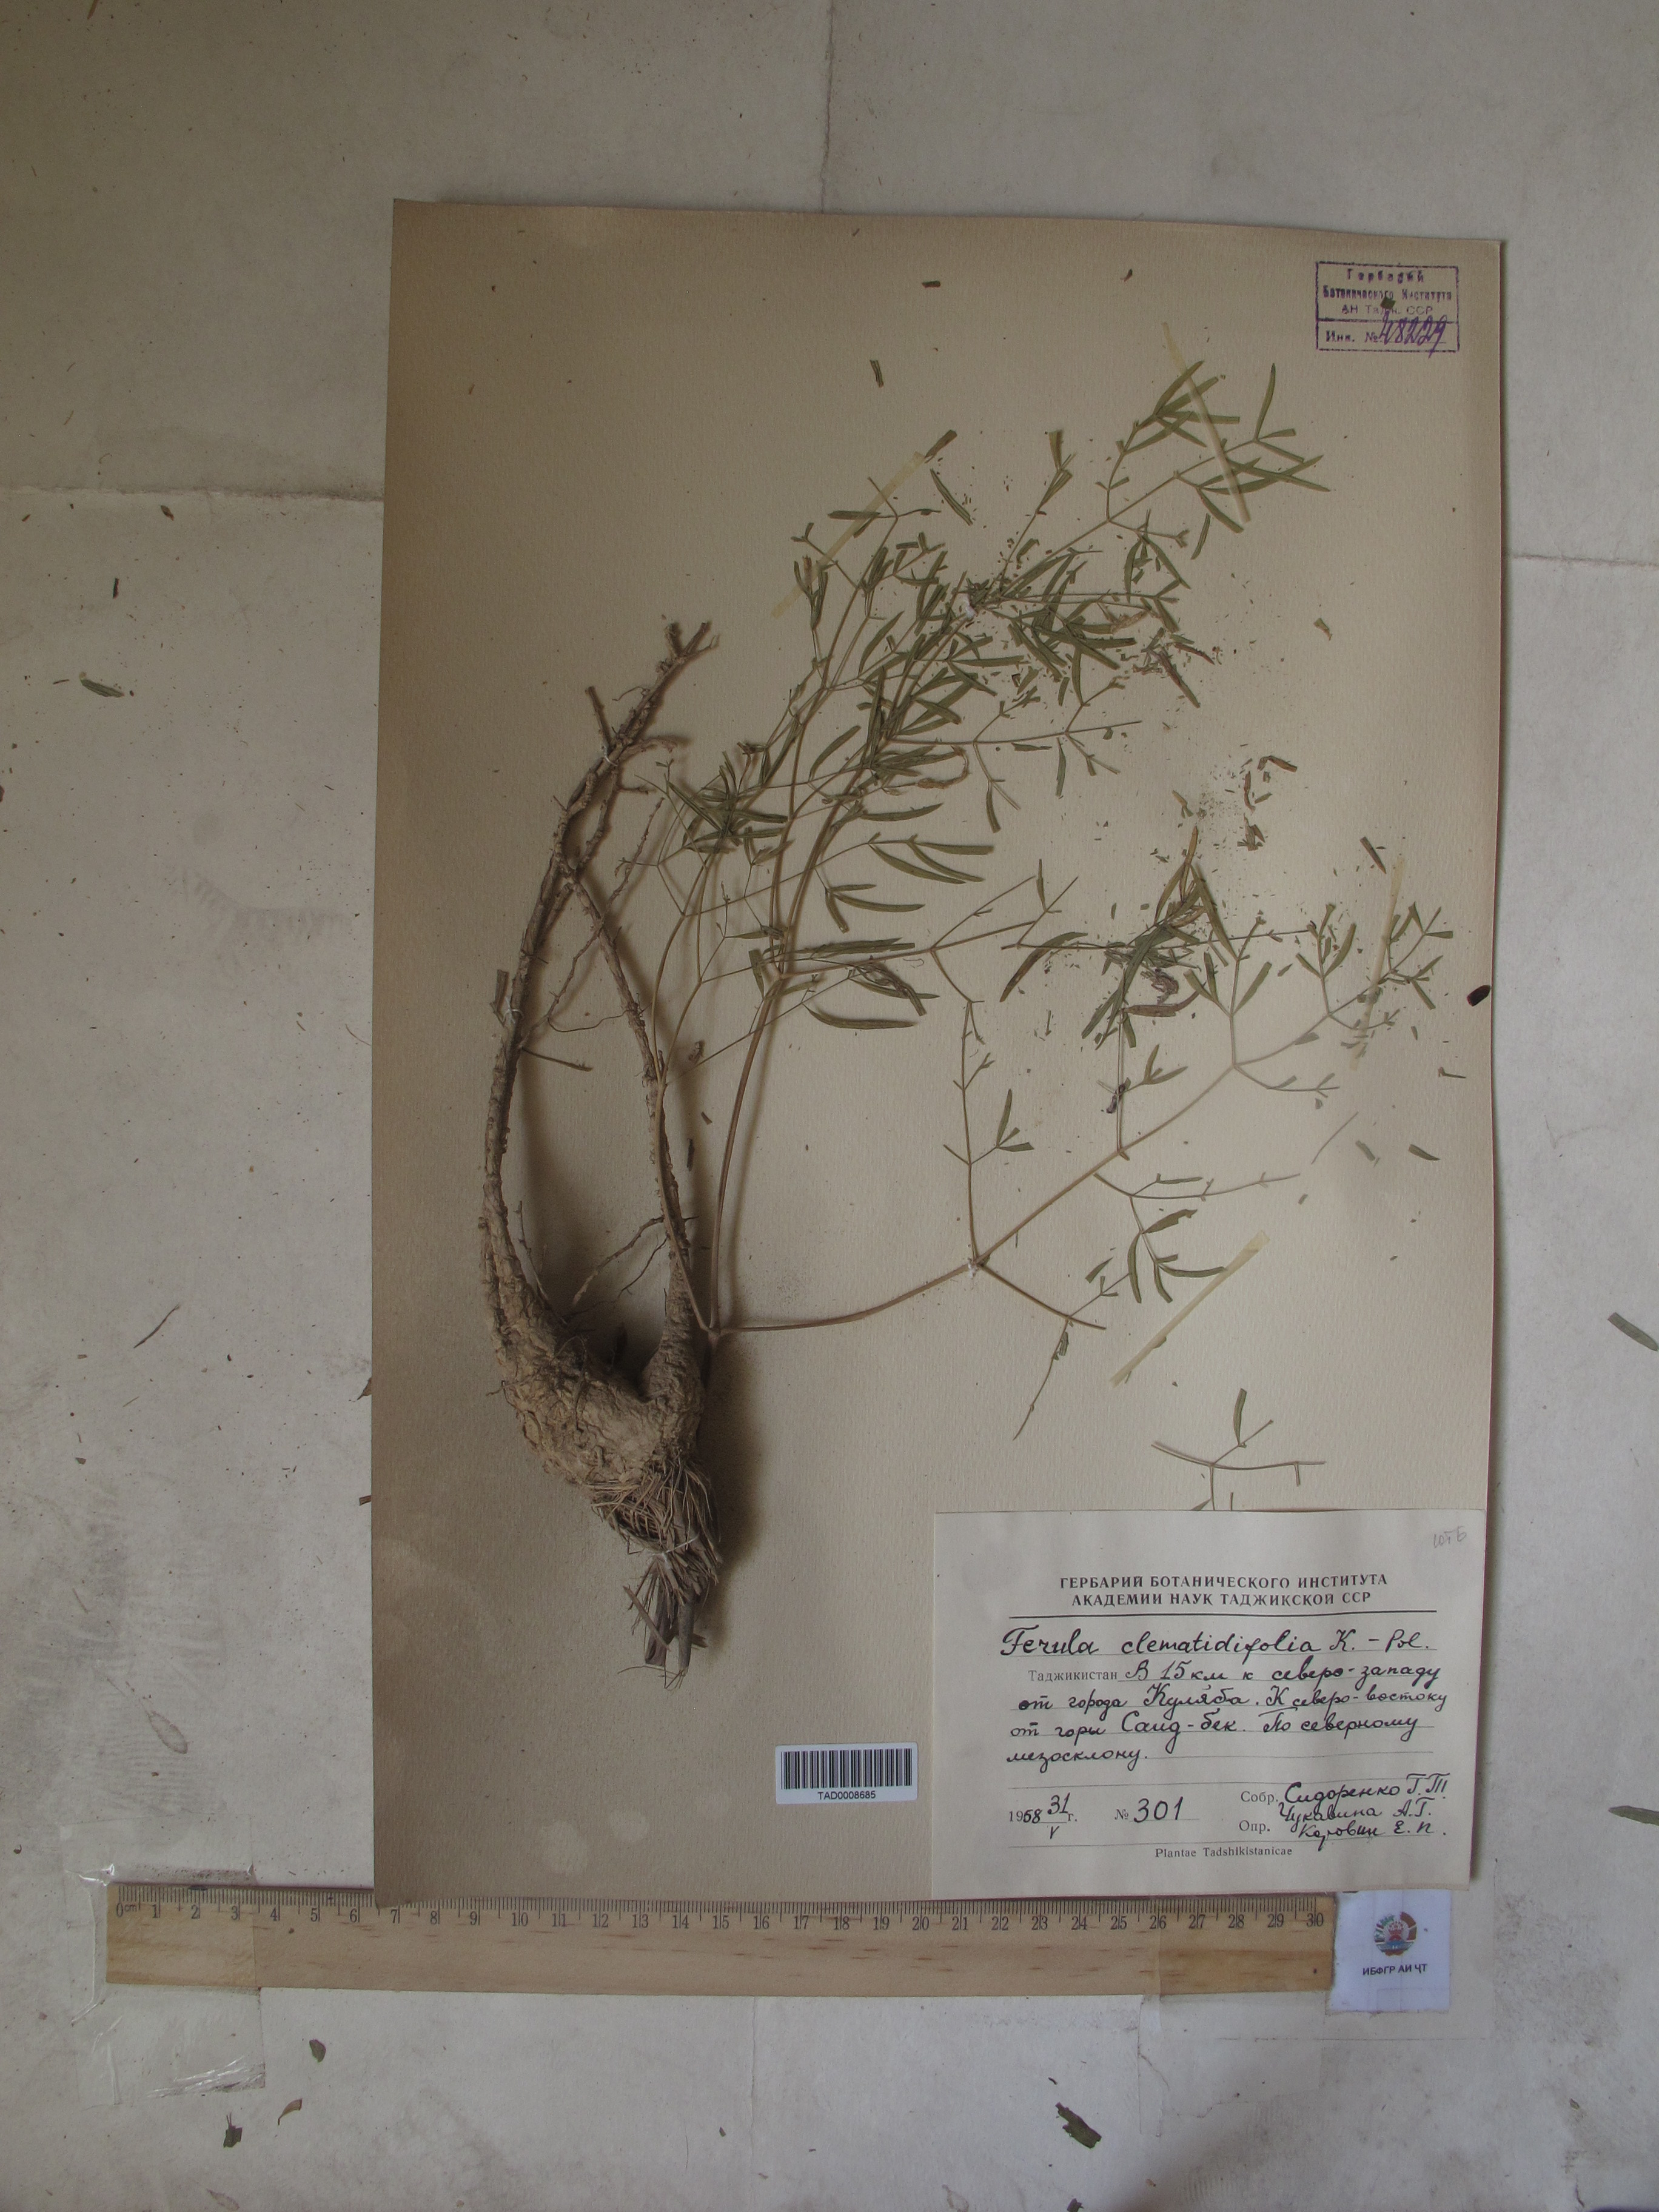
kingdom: Plantae
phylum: Tracheophyta
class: Magnoliopsida
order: Apiales
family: Apiaceae
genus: Ferula
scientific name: Ferula clematidifolia
